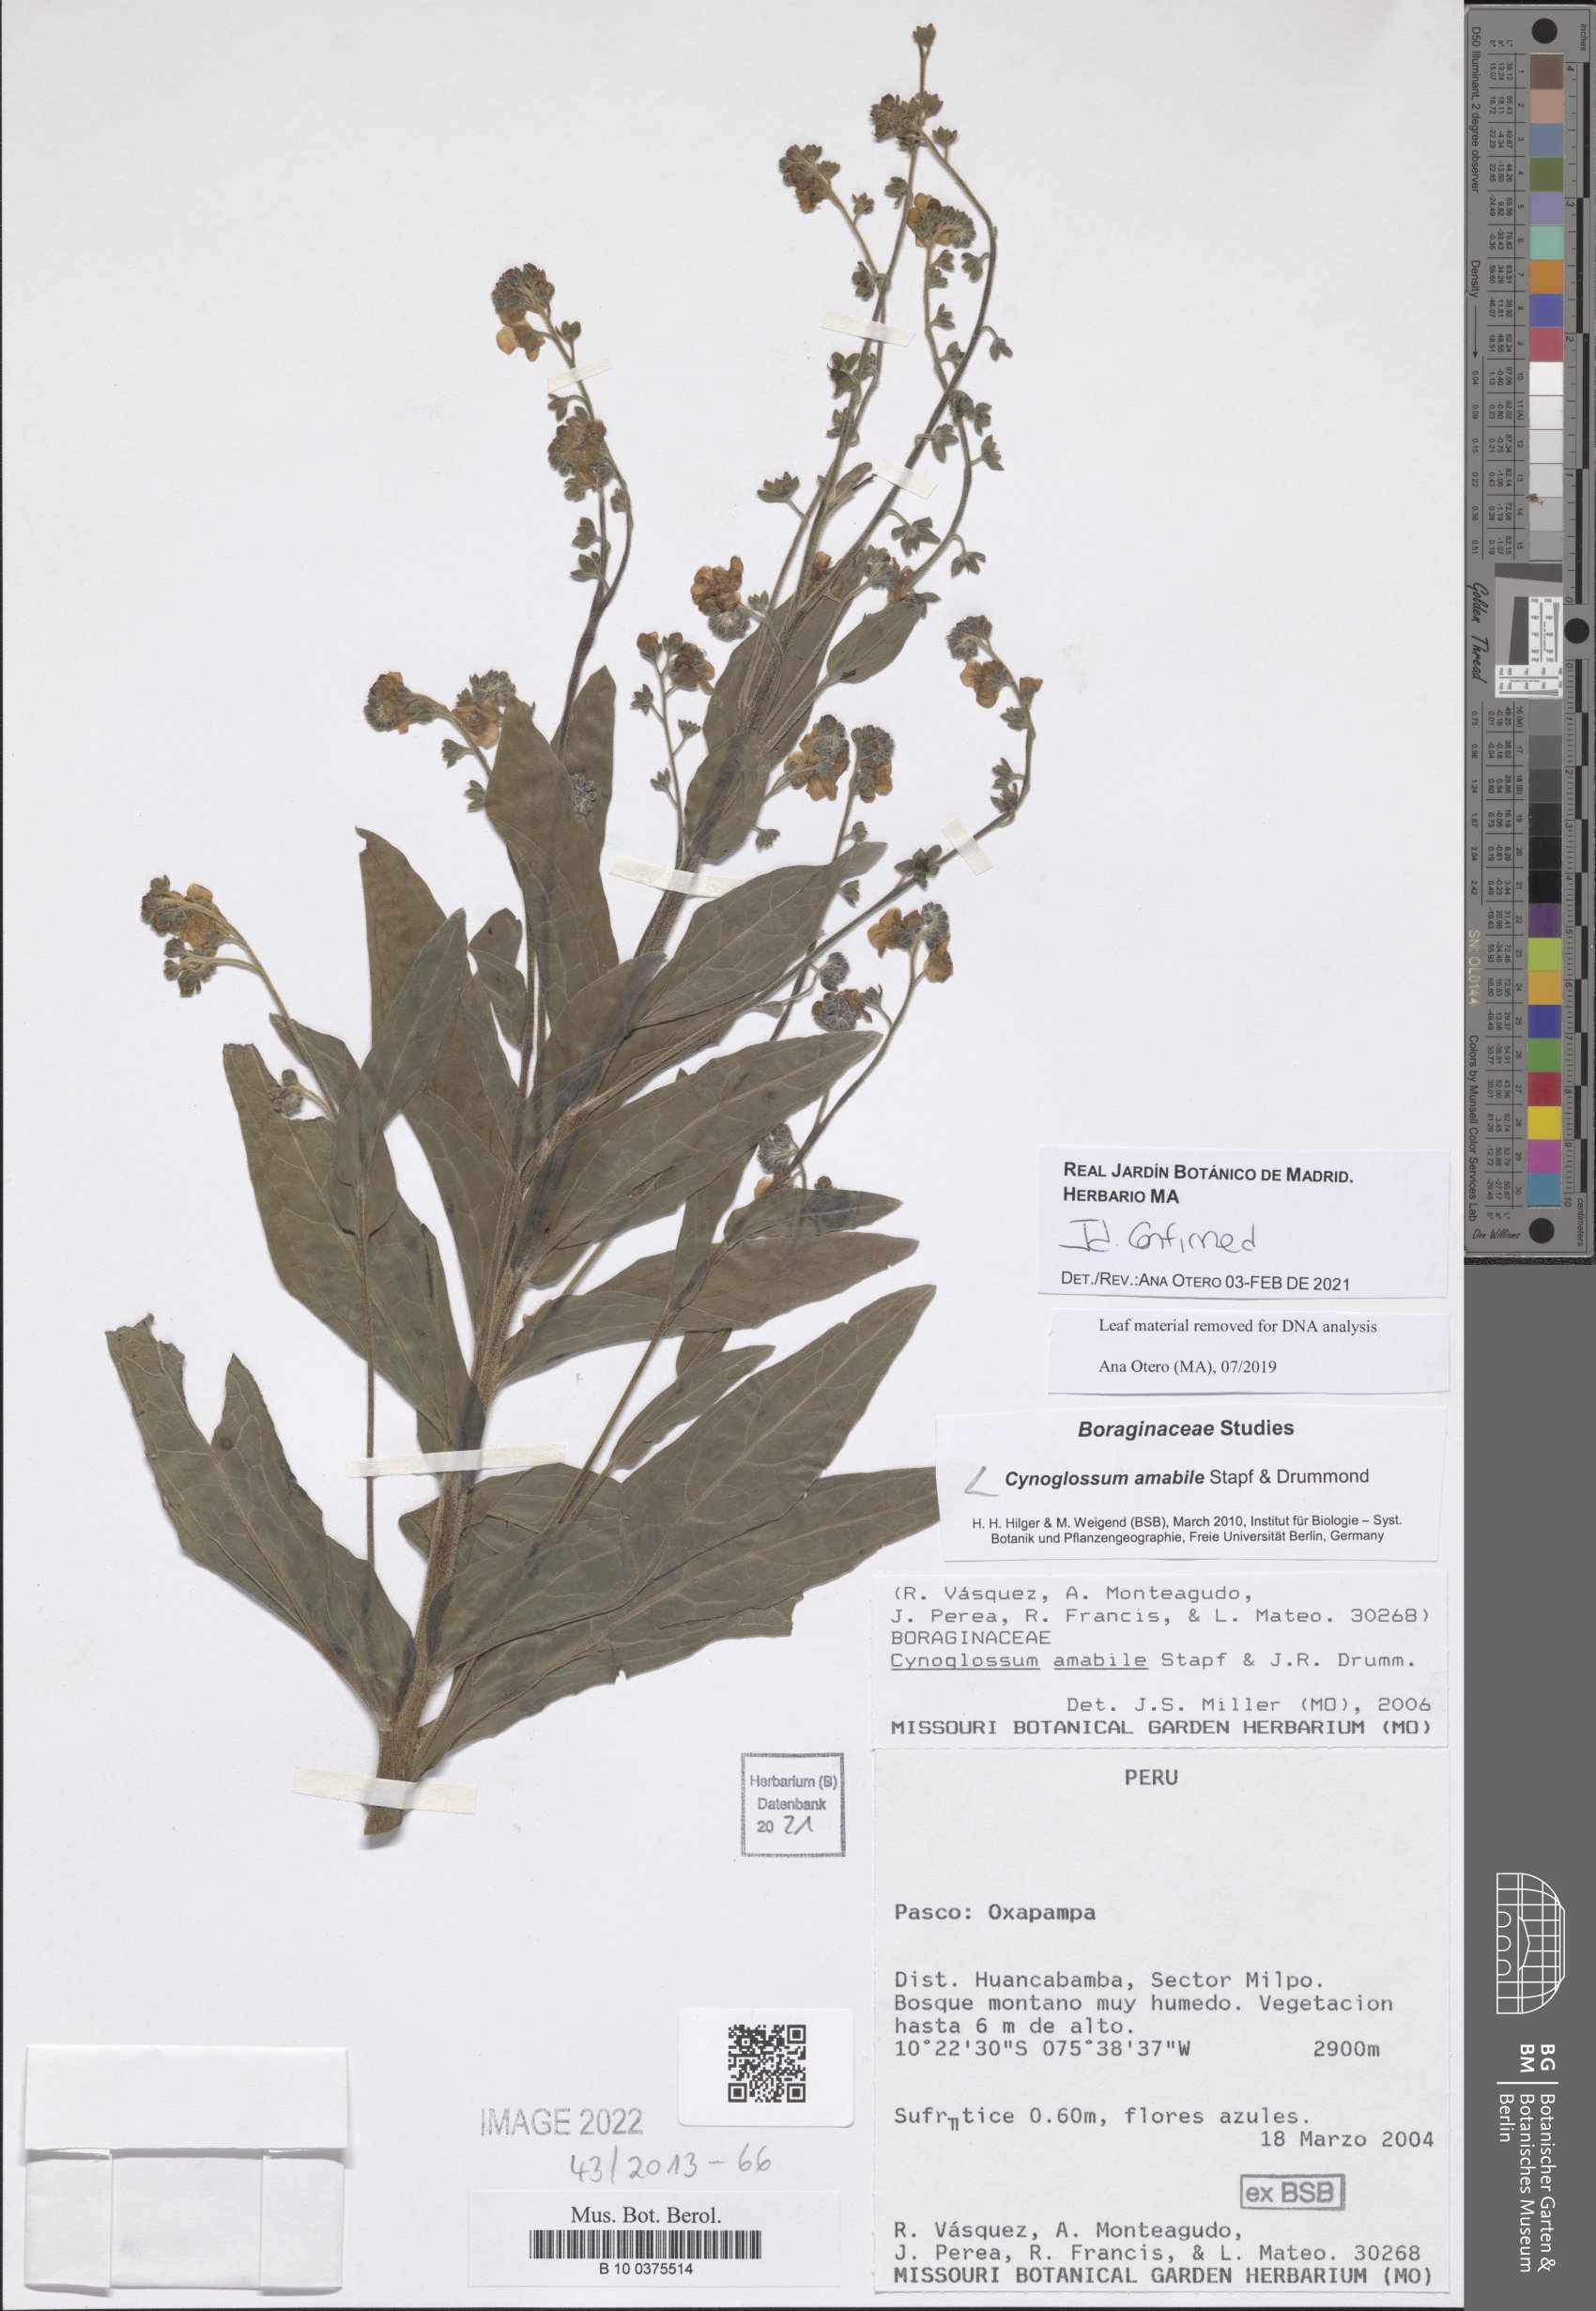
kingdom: Plantae
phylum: Tracheophyta
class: Magnoliopsida
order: Boraginales
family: Boraginaceae
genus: Cynoglossum
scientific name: Cynoglossum amabile
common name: Chinese hound's tongue
